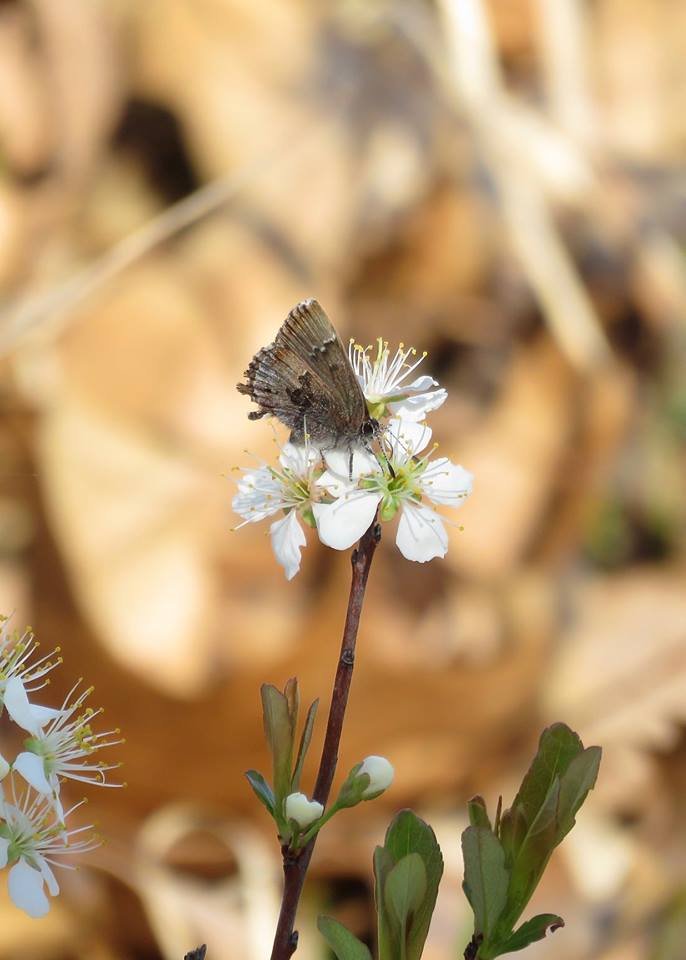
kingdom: Animalia
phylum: Arthropoda
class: Insecta
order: Lepidoptera
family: Lycaenidae
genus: Thecla
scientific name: Thecla irus
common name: Frosted Elfin
